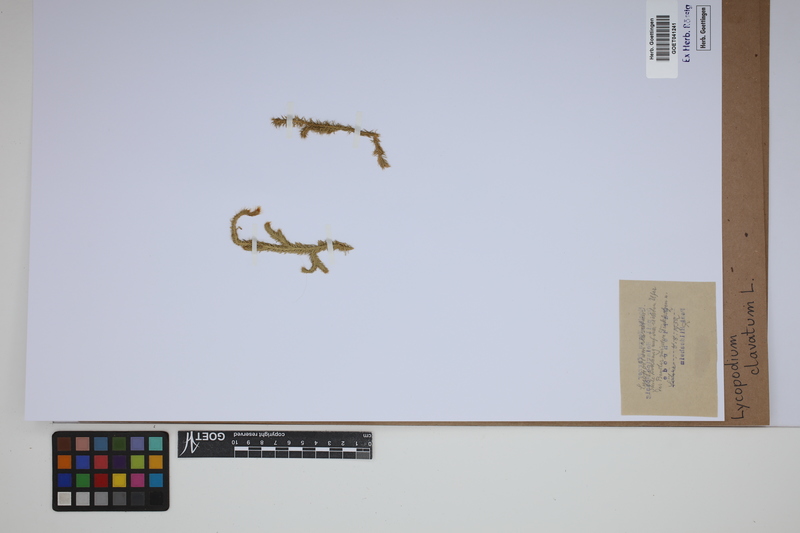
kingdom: Plantae
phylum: Tracheophyta
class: Lycopodiopsida
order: Lycopodiales
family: Lycopodiaceae
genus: Lycopodium
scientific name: Lycopodium clavatum
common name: Stag's-horn clubmoss
